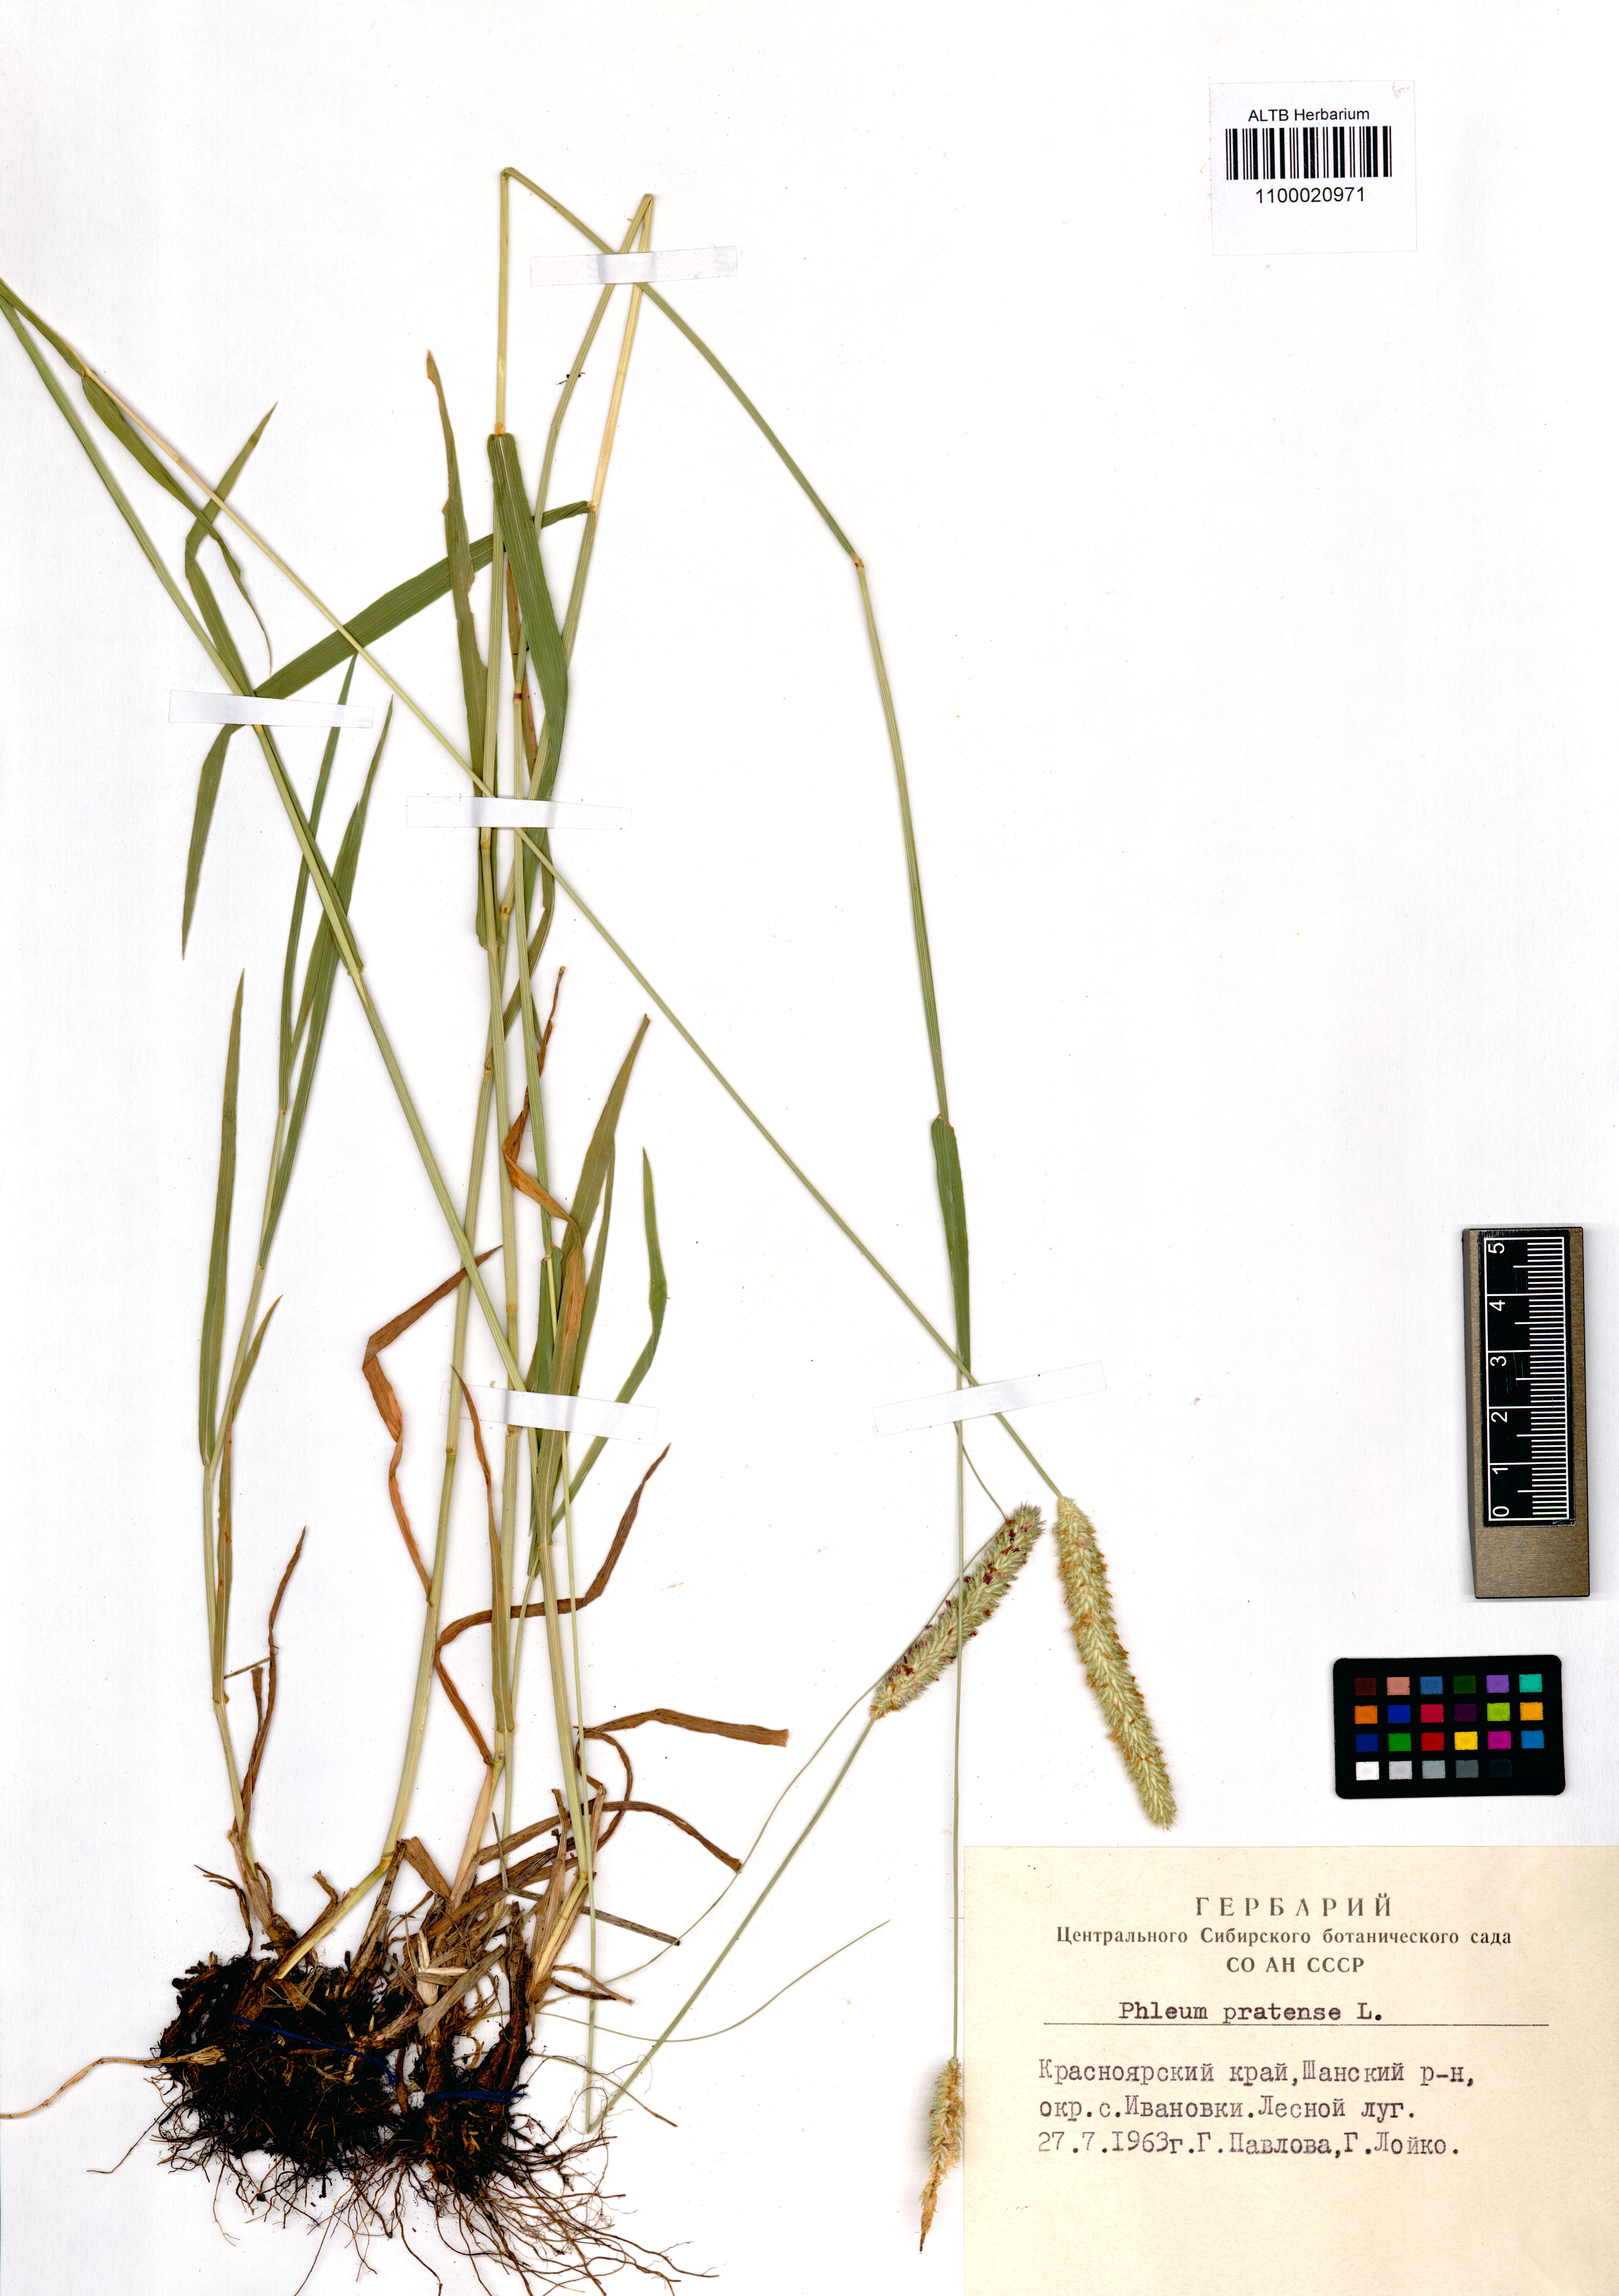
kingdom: Plantae
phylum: Tracheophyta
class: Liliopsida
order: Poales
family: Poaceae
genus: Phleum
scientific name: Phleum pratense
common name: Timothy grass
